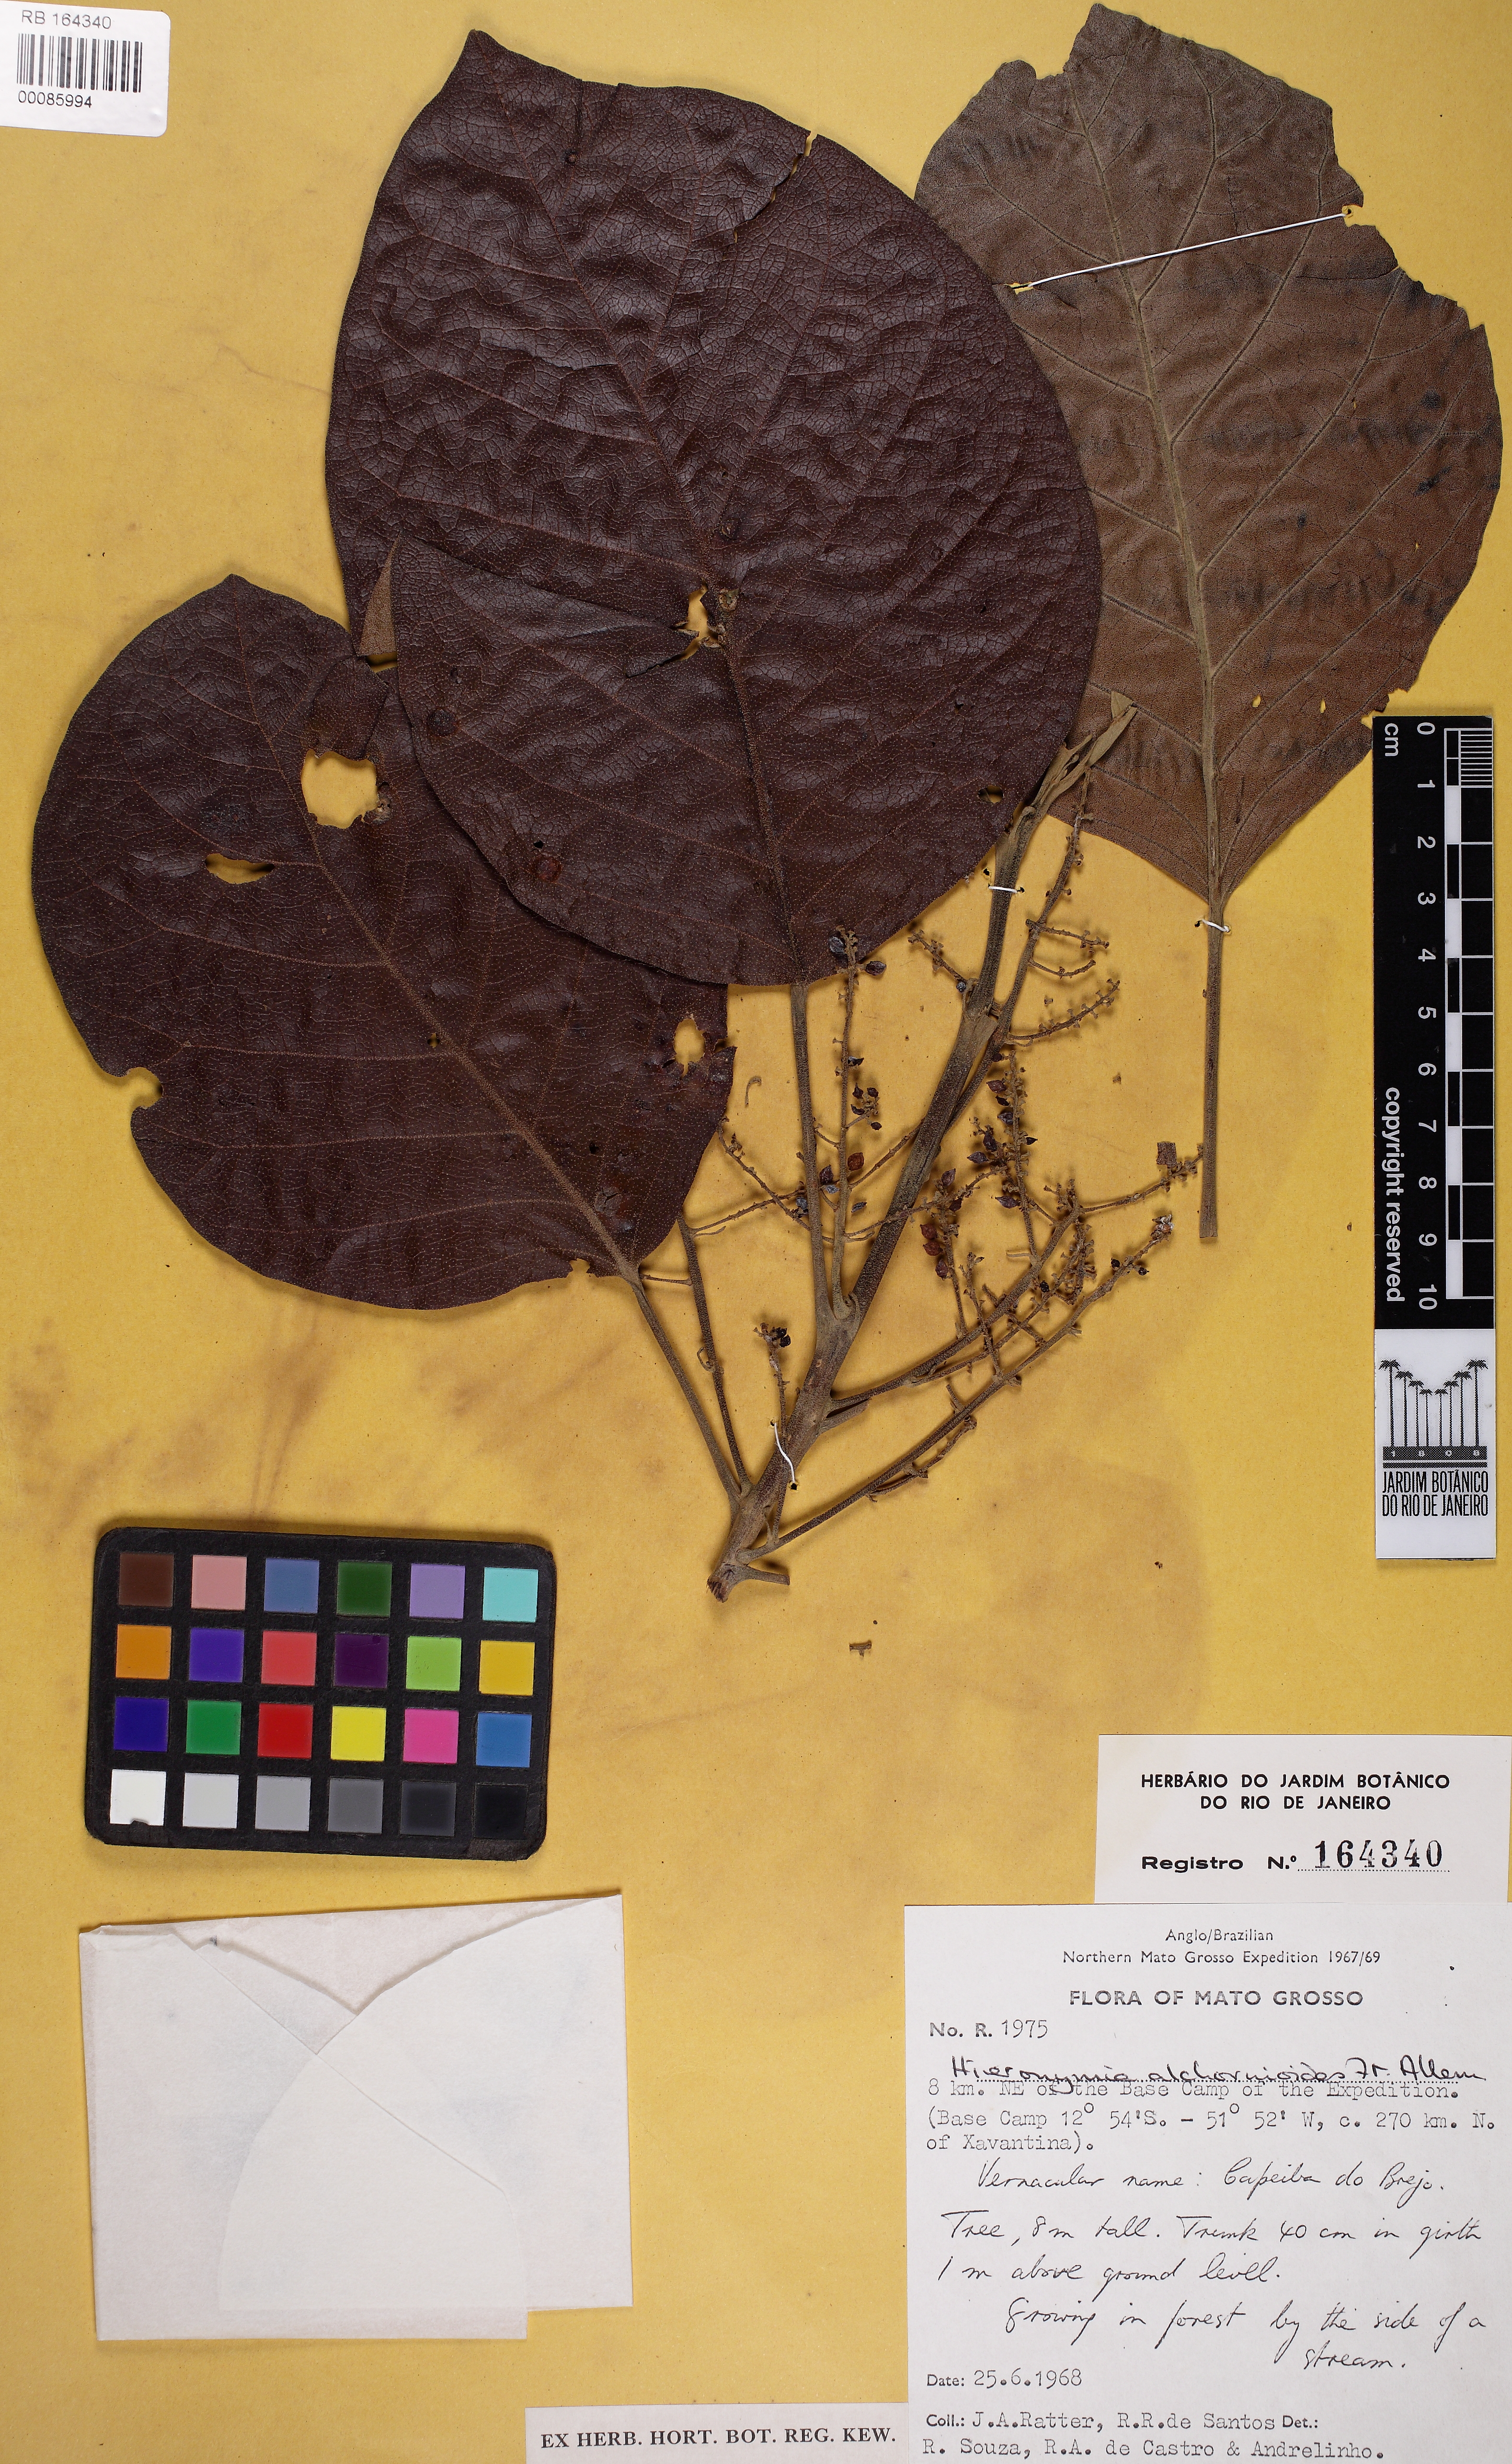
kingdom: Plantae
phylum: Tracheophyta
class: Magnoliopsida
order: Malpighiales
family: Phyllanthaceae
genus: Hieronyma
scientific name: Hieronyma alchorneoides
